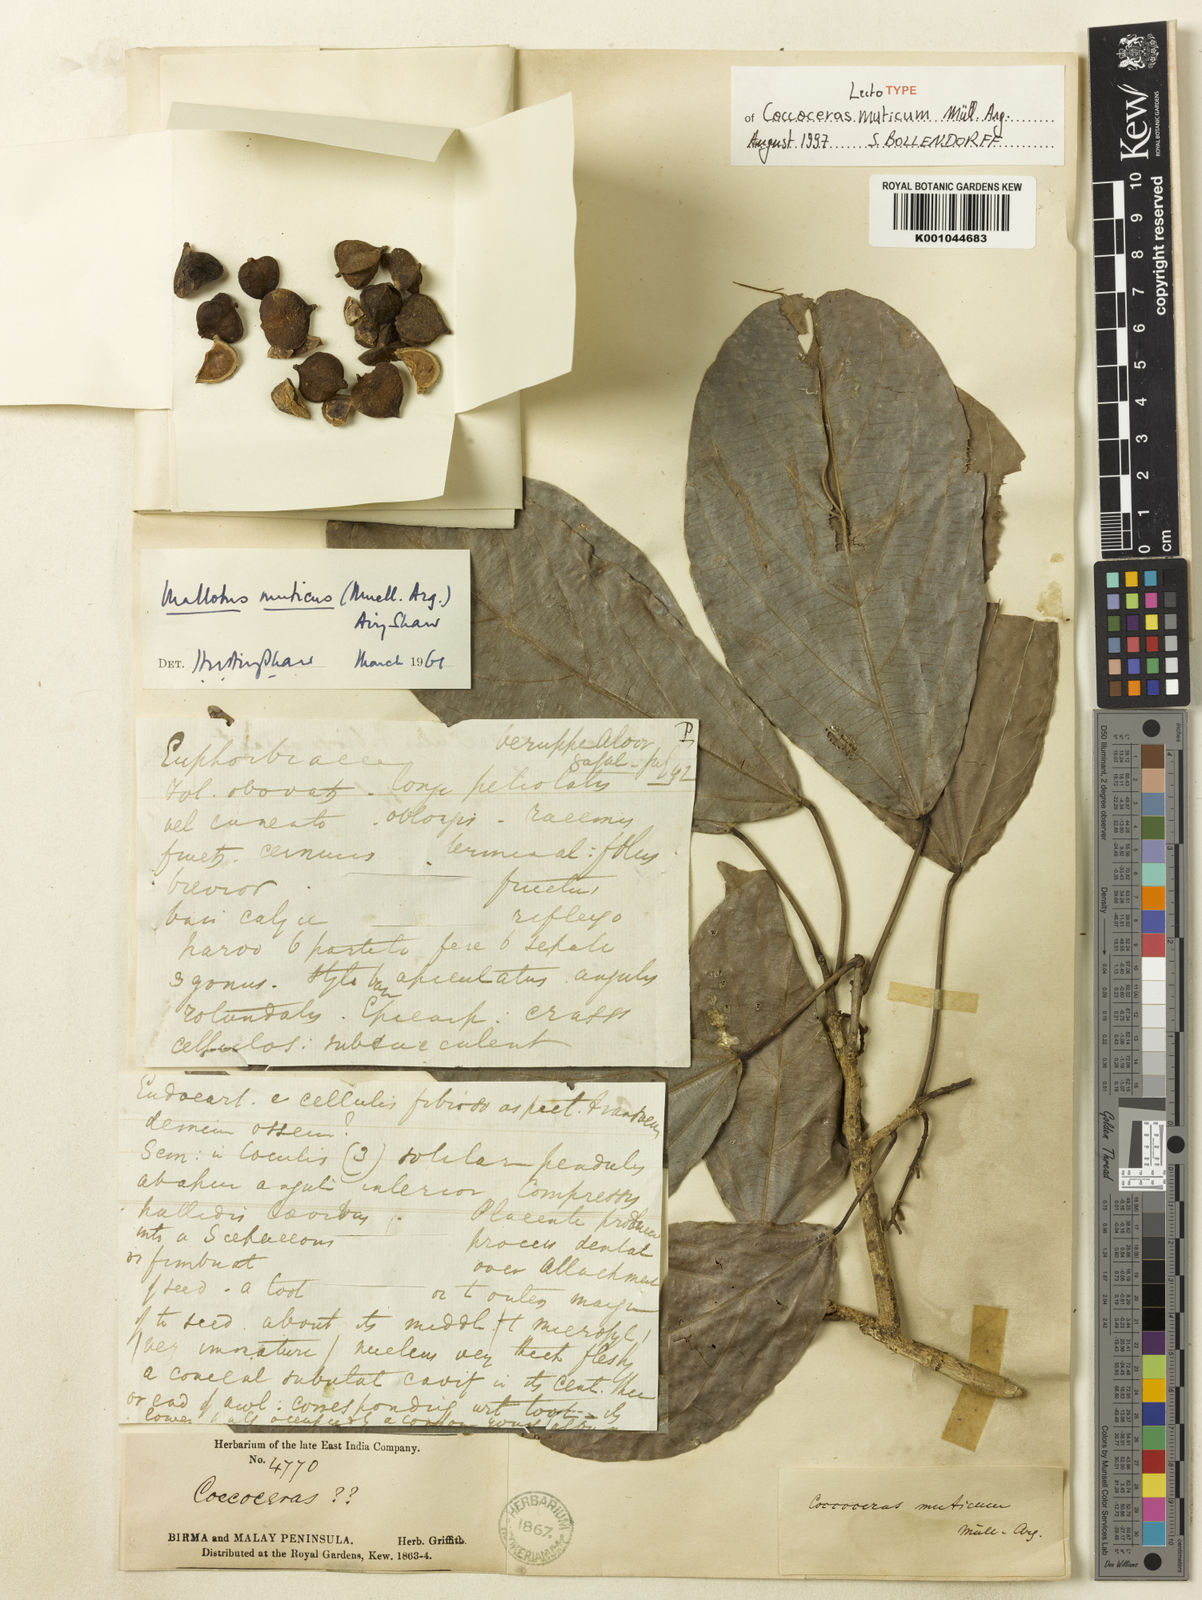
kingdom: Plantae
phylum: Tracheophyta
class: Magnoliopsida
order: Malpighiales
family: Euphorbiaceae
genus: Mallotus
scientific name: Mallotus
